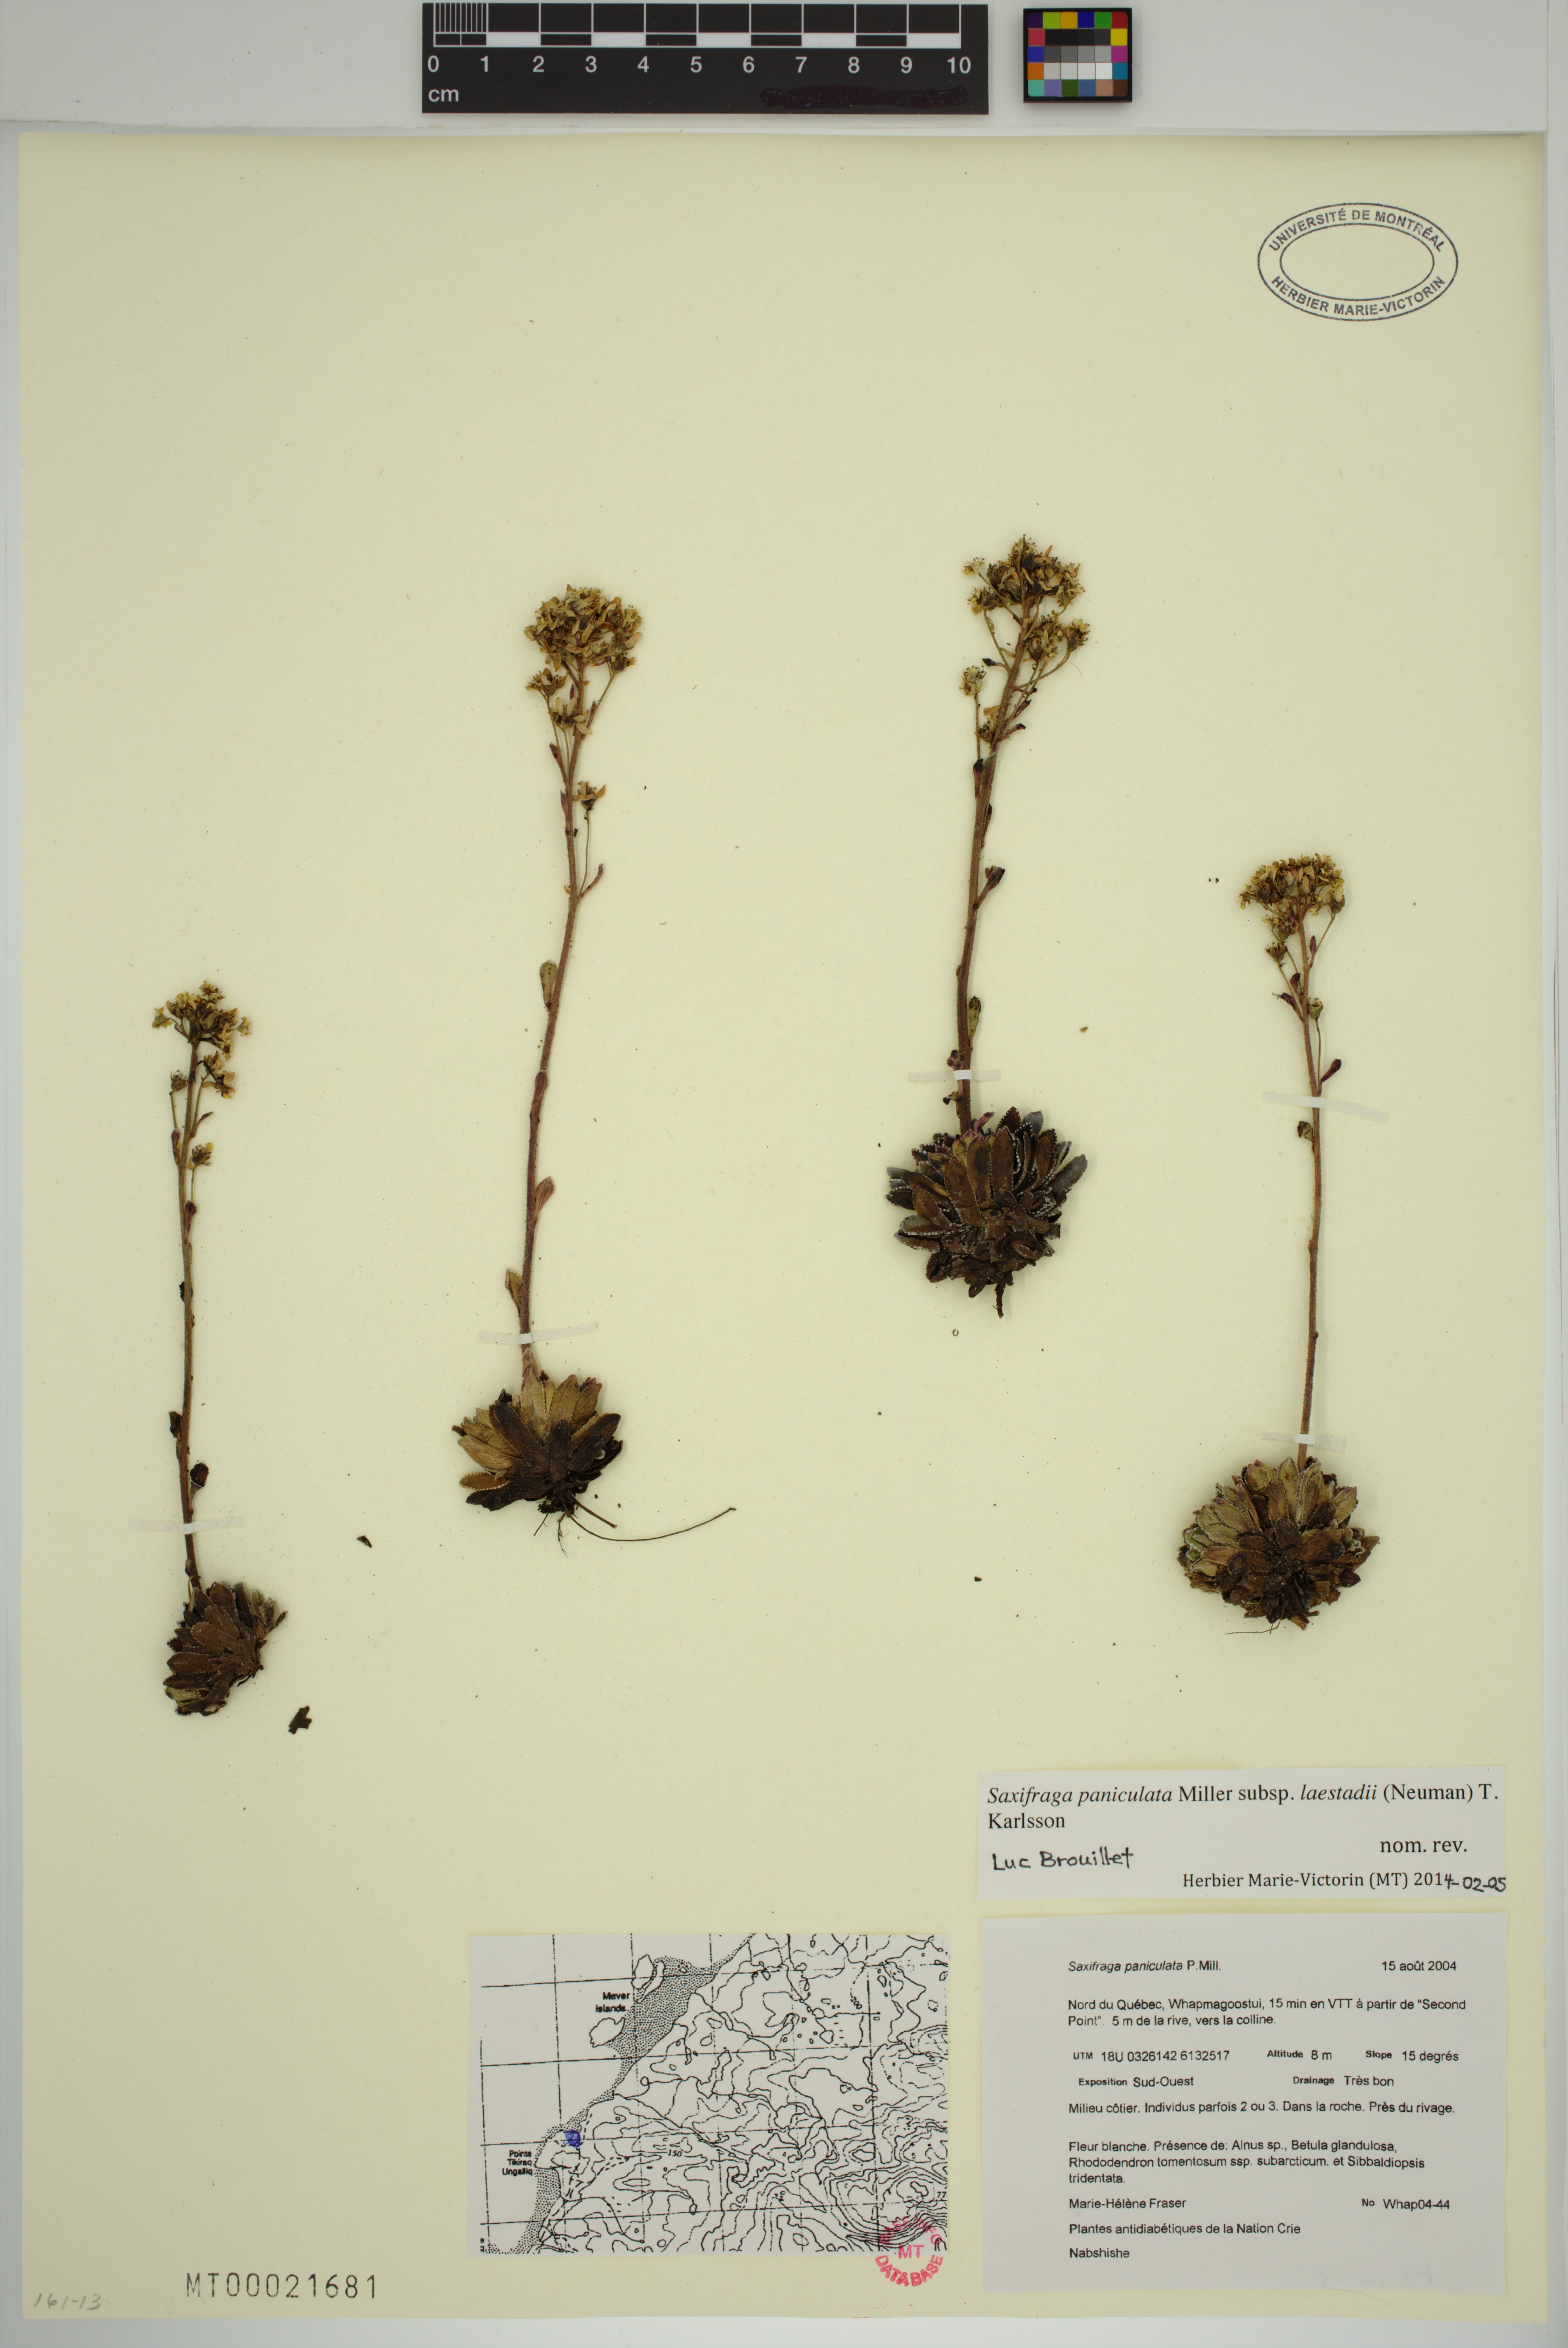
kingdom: Plantae
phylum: Tracheophyta
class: Magnoliopsida
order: Saxifragales
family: Saxifragaceae
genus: Saxifraga
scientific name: Saxifraga paniculata
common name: Livelong saxifrage
